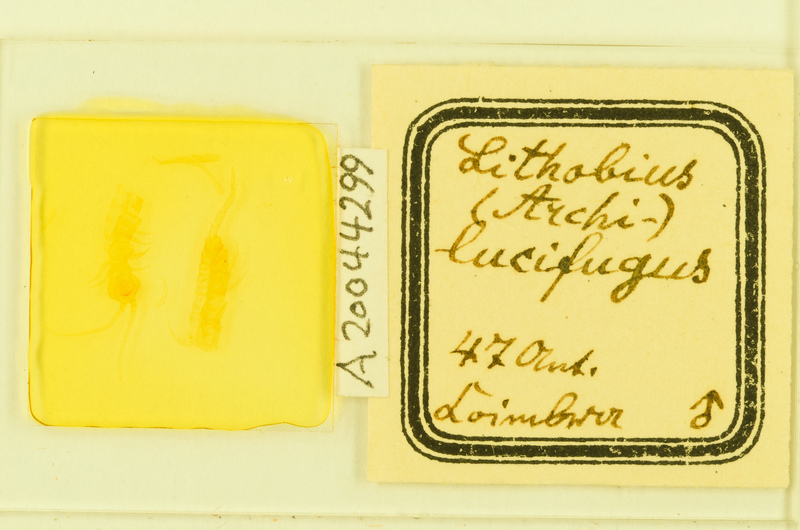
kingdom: Animalia
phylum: Arthropoda
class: Chilopoda
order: Lithobiomorpha
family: Lithobiidae
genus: Lithobius
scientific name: Lithobius lucifugus
